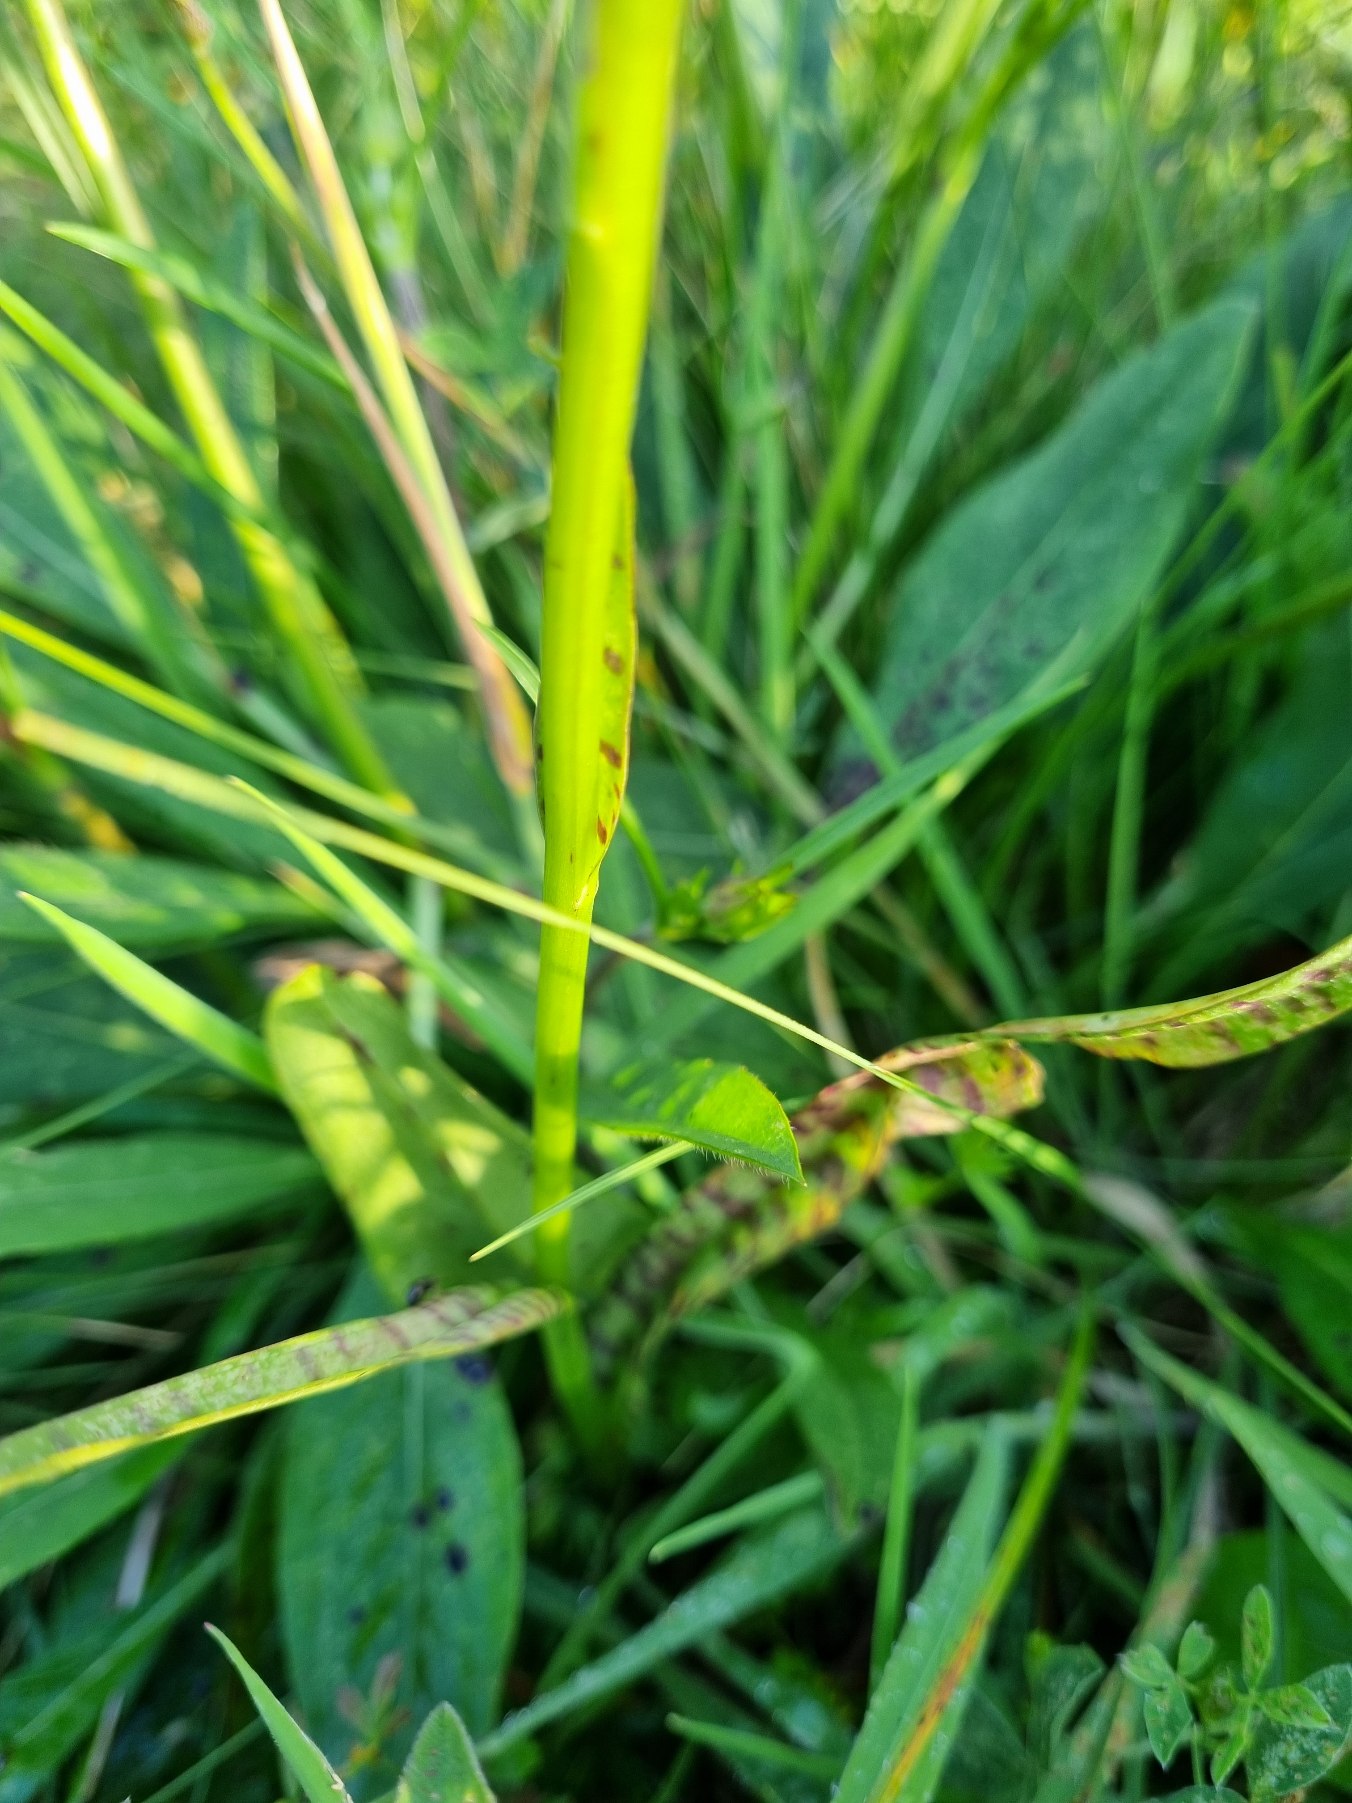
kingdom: Plantae
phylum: Tracheophyta
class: Liliopsida
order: Asparagales
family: Orchidaceae
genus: Dactylorhiza
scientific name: Dactylorhiza maculata
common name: Plettet gøgeurt
